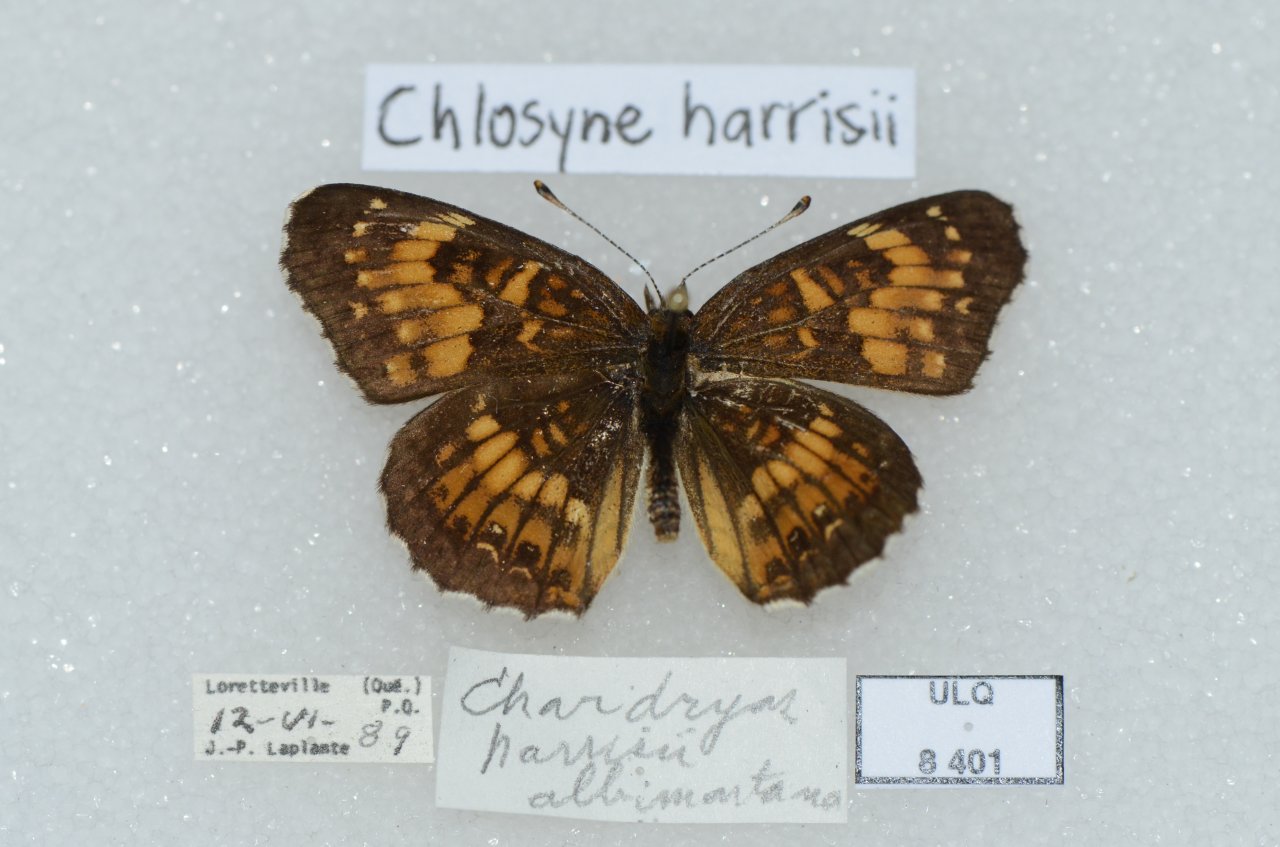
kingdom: Animalia
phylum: Arthropoda
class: Insecta
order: Lepidoptera
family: Nymphalidae
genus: Chlosyne
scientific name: Chlosyne harrisii
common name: Harris's Checkerspot
